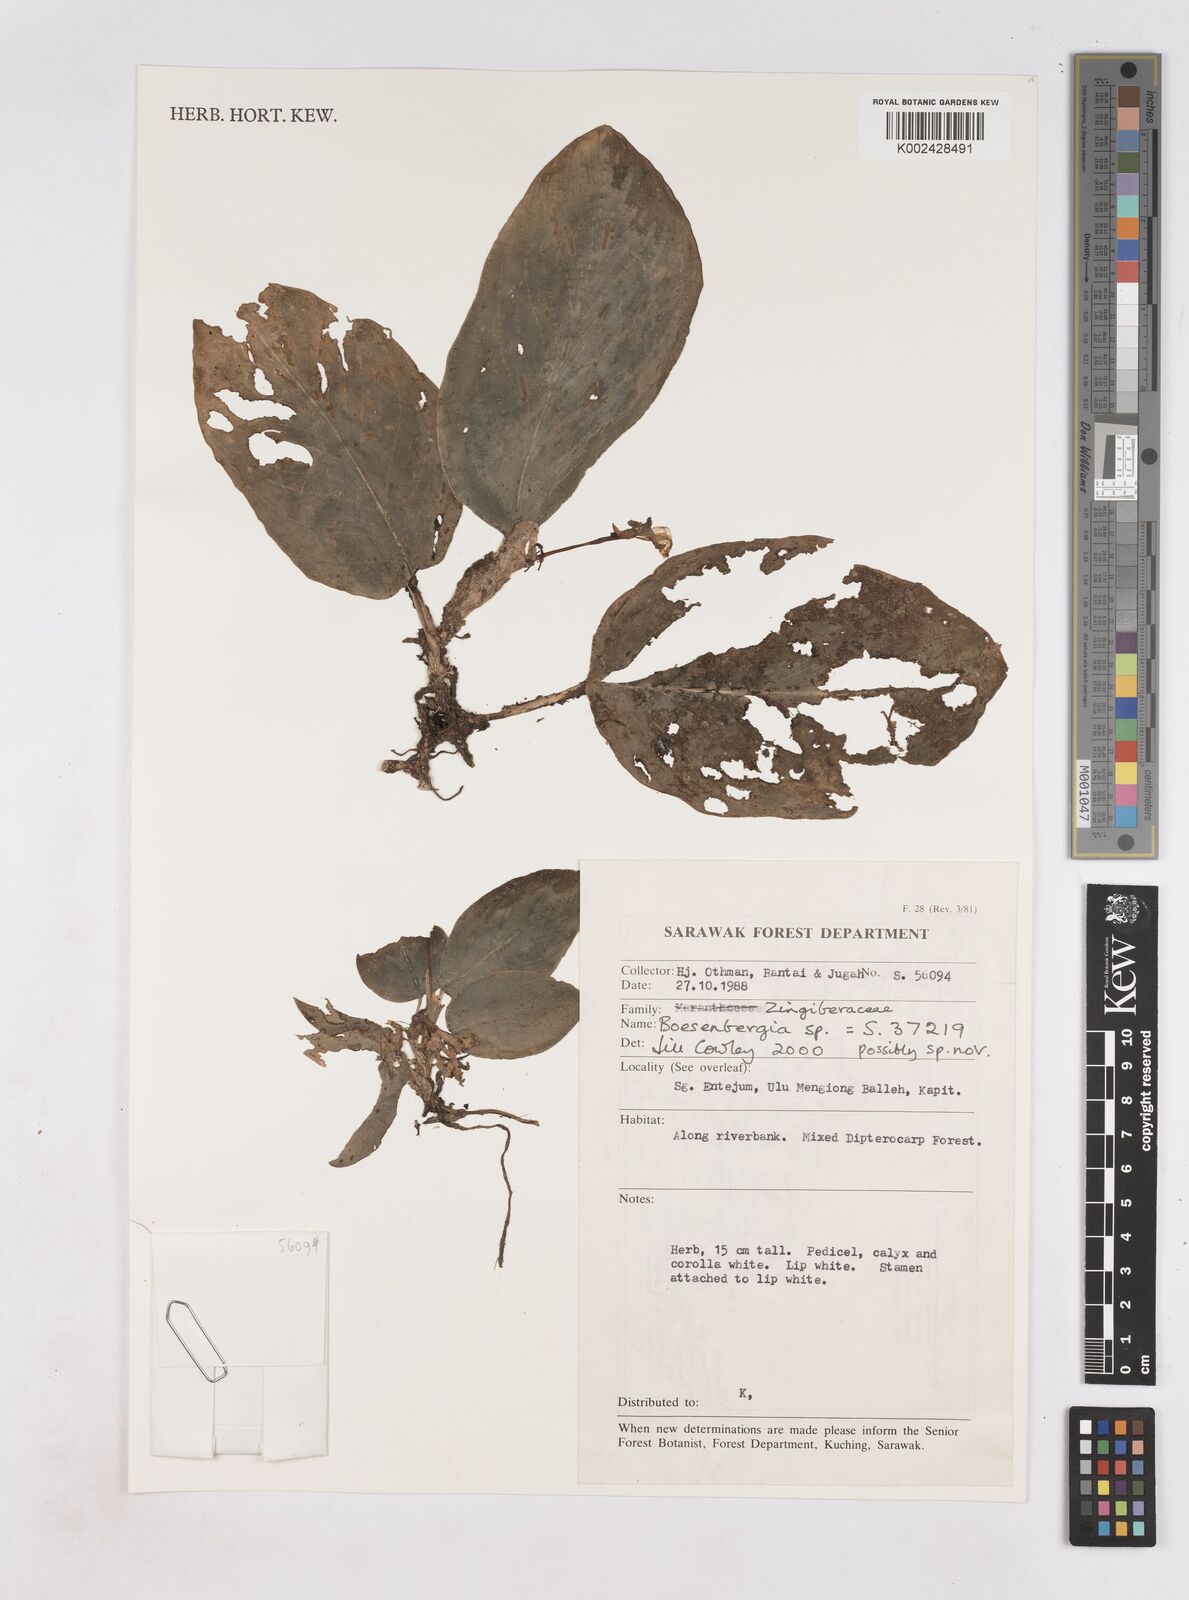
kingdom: Plantae
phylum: Tracheophyta
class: Liliopsida
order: Zingiberales
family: Zingiberaceae
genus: Boesenbergia
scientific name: Boesenbergia
